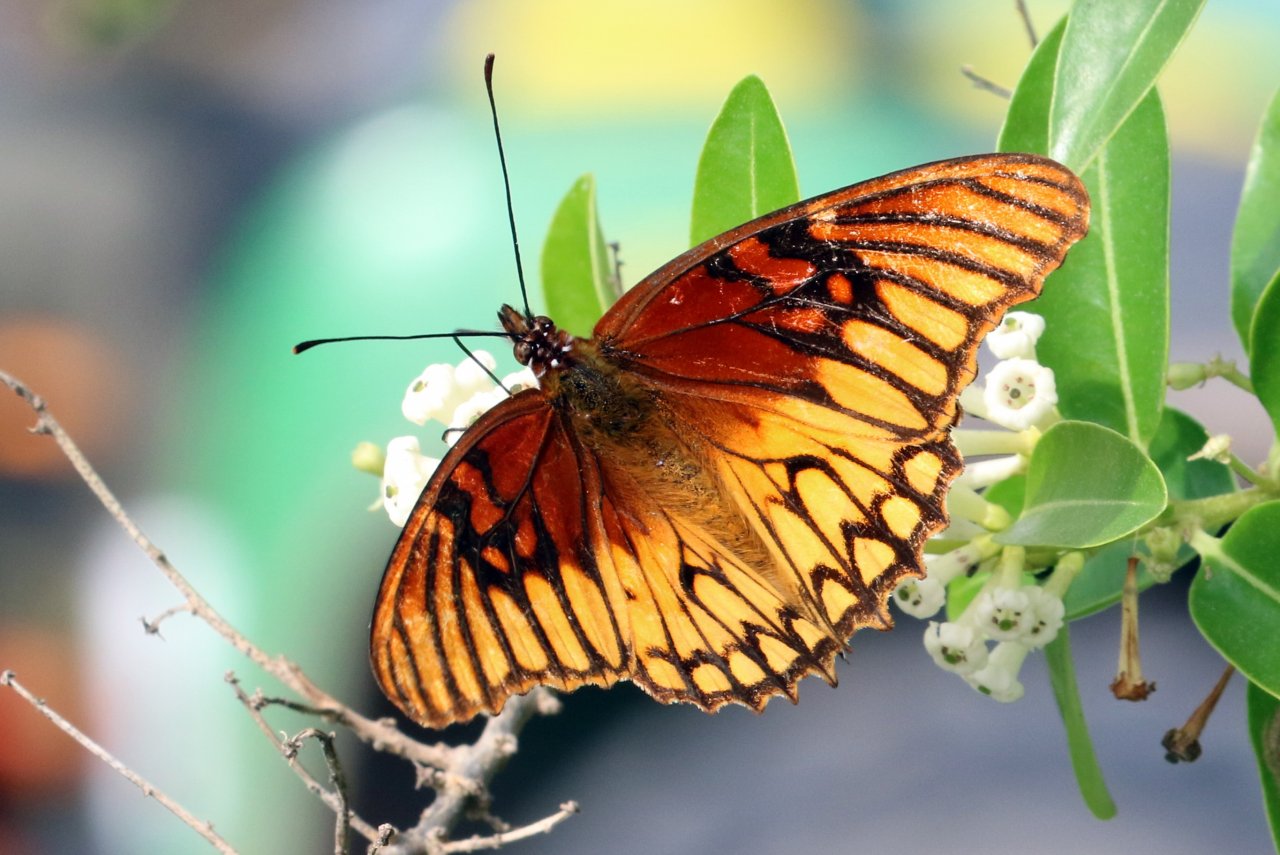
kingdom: Animalia
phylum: Arthropoda
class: Insecta
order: Lepidoptera
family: Nymphalidae
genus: Dione
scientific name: Dione moneta
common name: Mexican Silverspot
